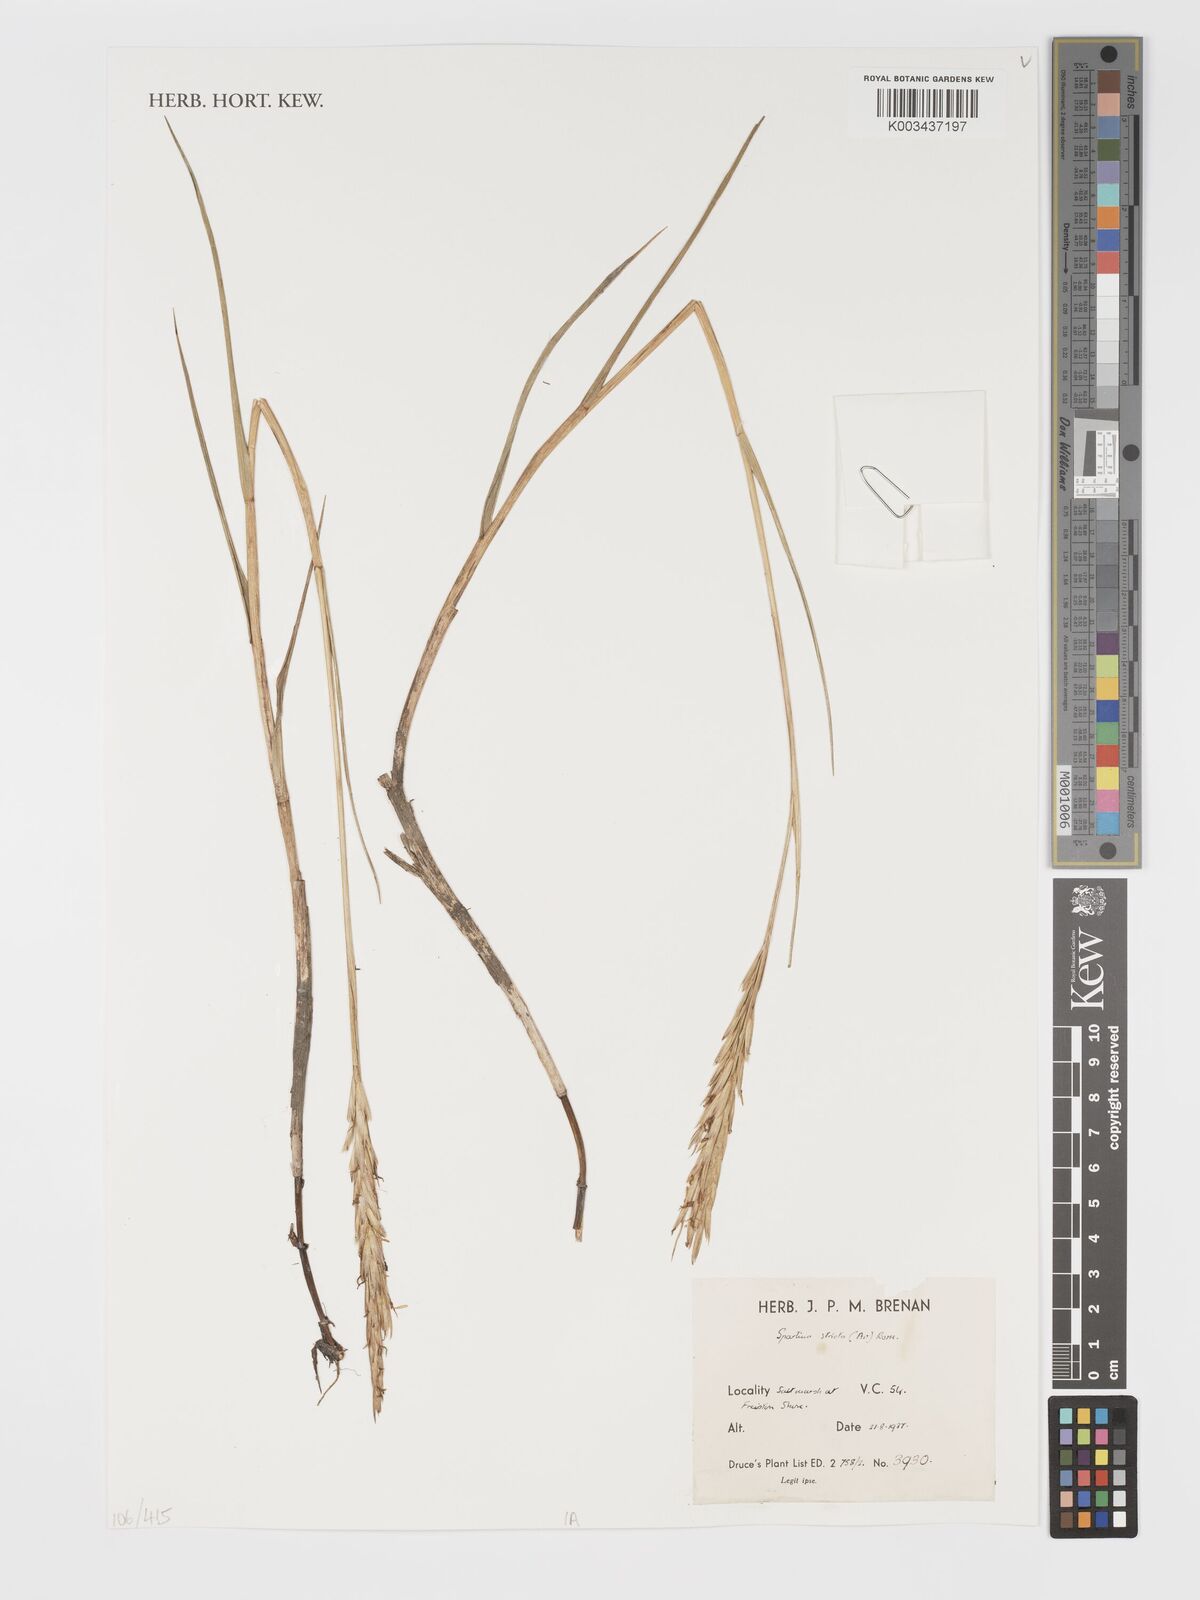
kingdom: Plantae
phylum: Tracheophyta
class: Liliopsida
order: Poales
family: Poaceae
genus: Sporobolus
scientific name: Sporobolus maritimus
